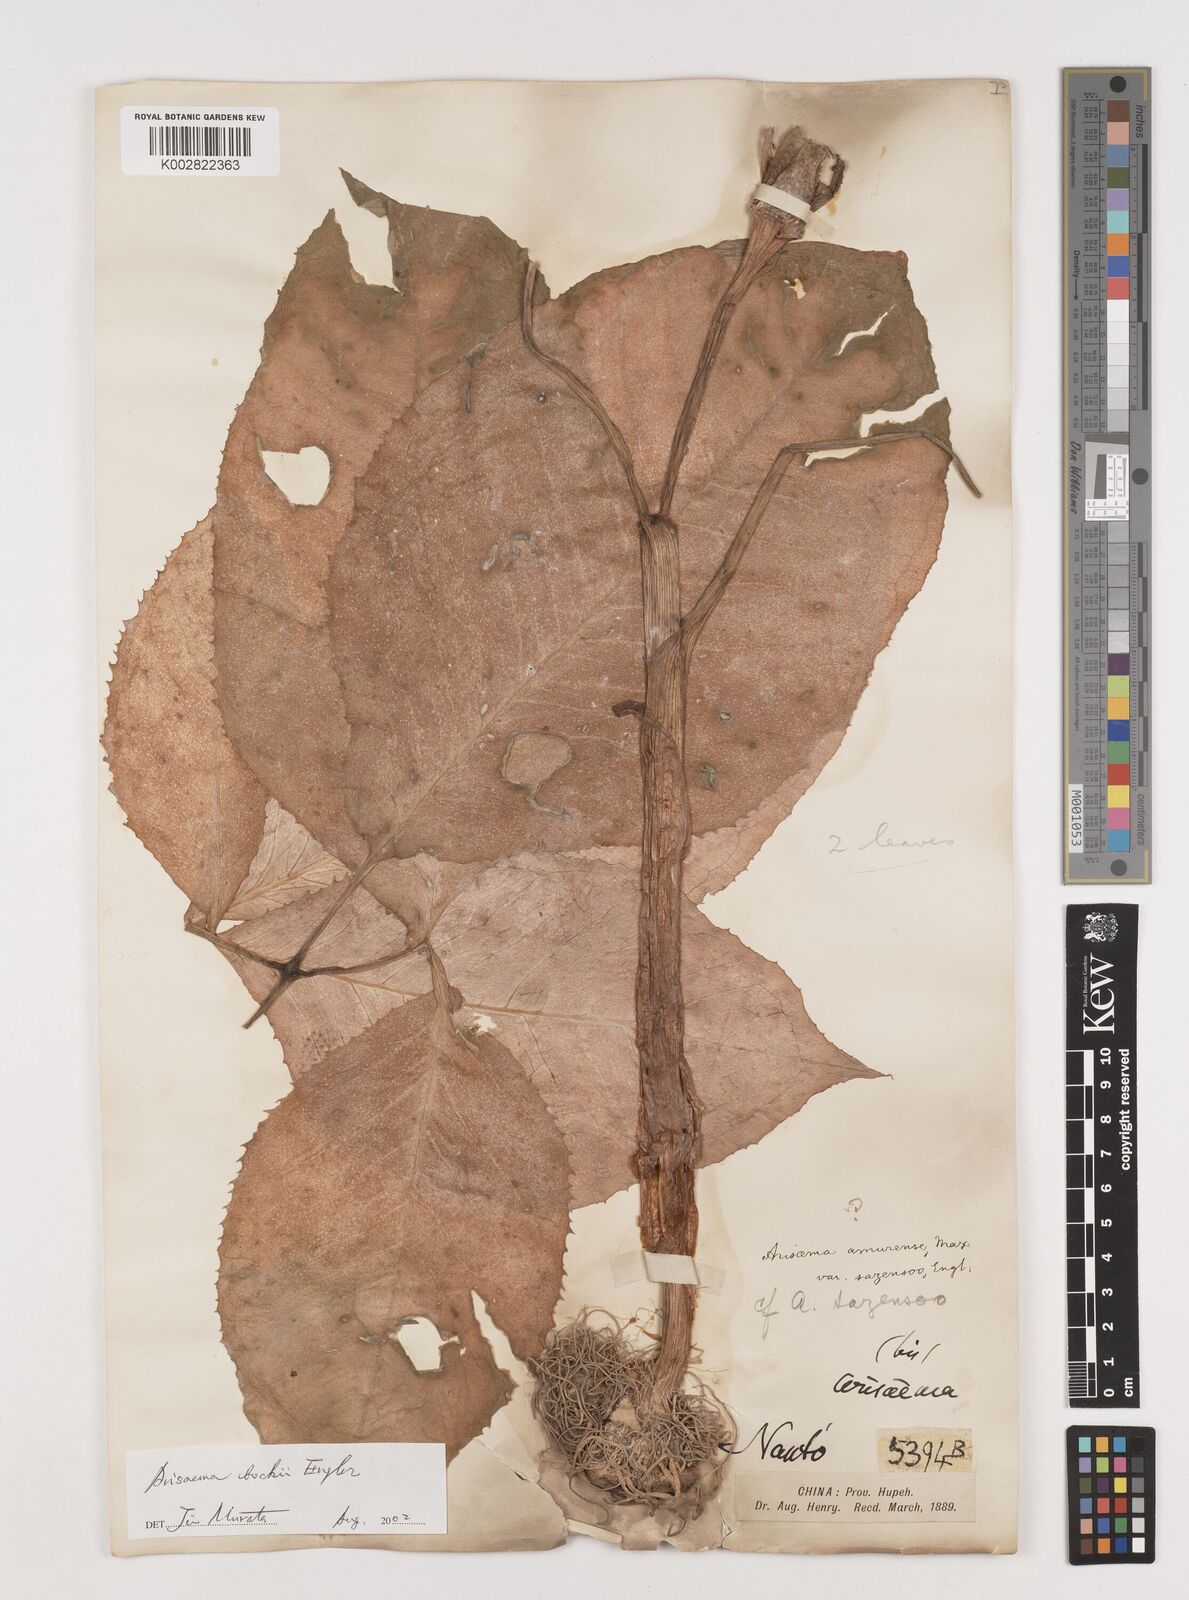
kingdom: Plantae
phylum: Tracheophyta
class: Liliopsida
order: Alismatales
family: Araceae
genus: Arisaema
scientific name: Arisaema bockii
